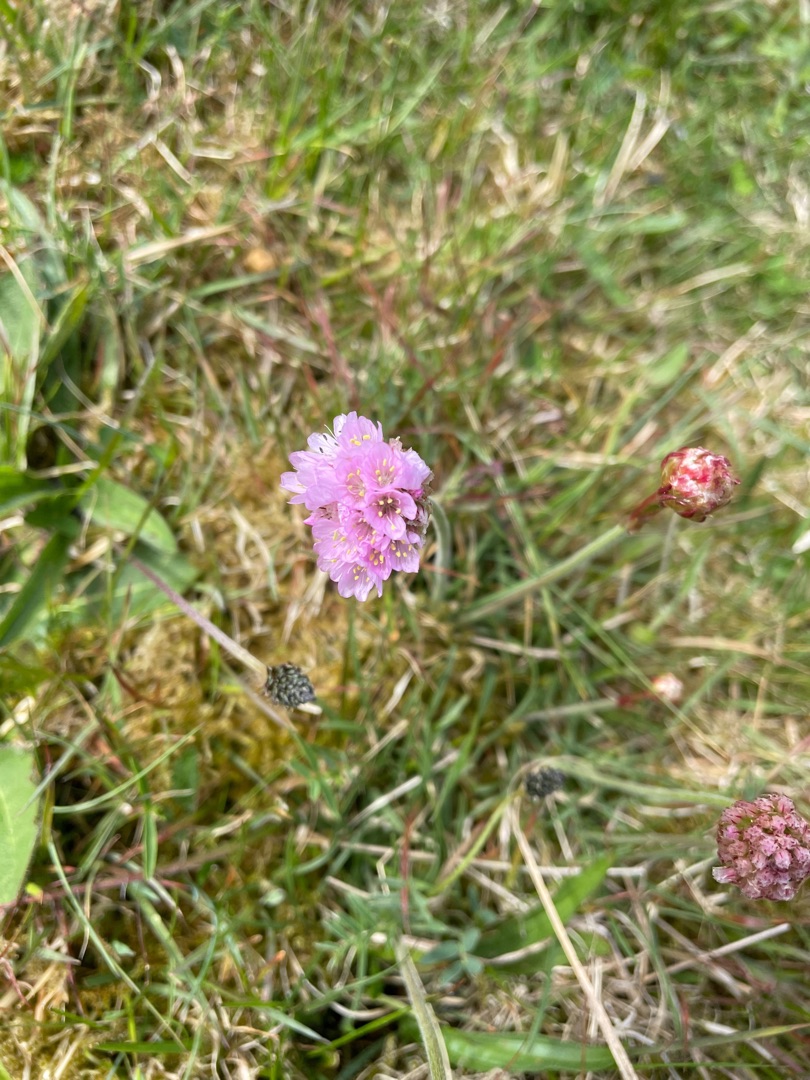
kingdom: Plantae
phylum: Tracheophyta
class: Magnoliopsida
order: Caryophyllales
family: Plumbaginaceae
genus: Armeria
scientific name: Armeria maritima
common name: Engelskgræs
